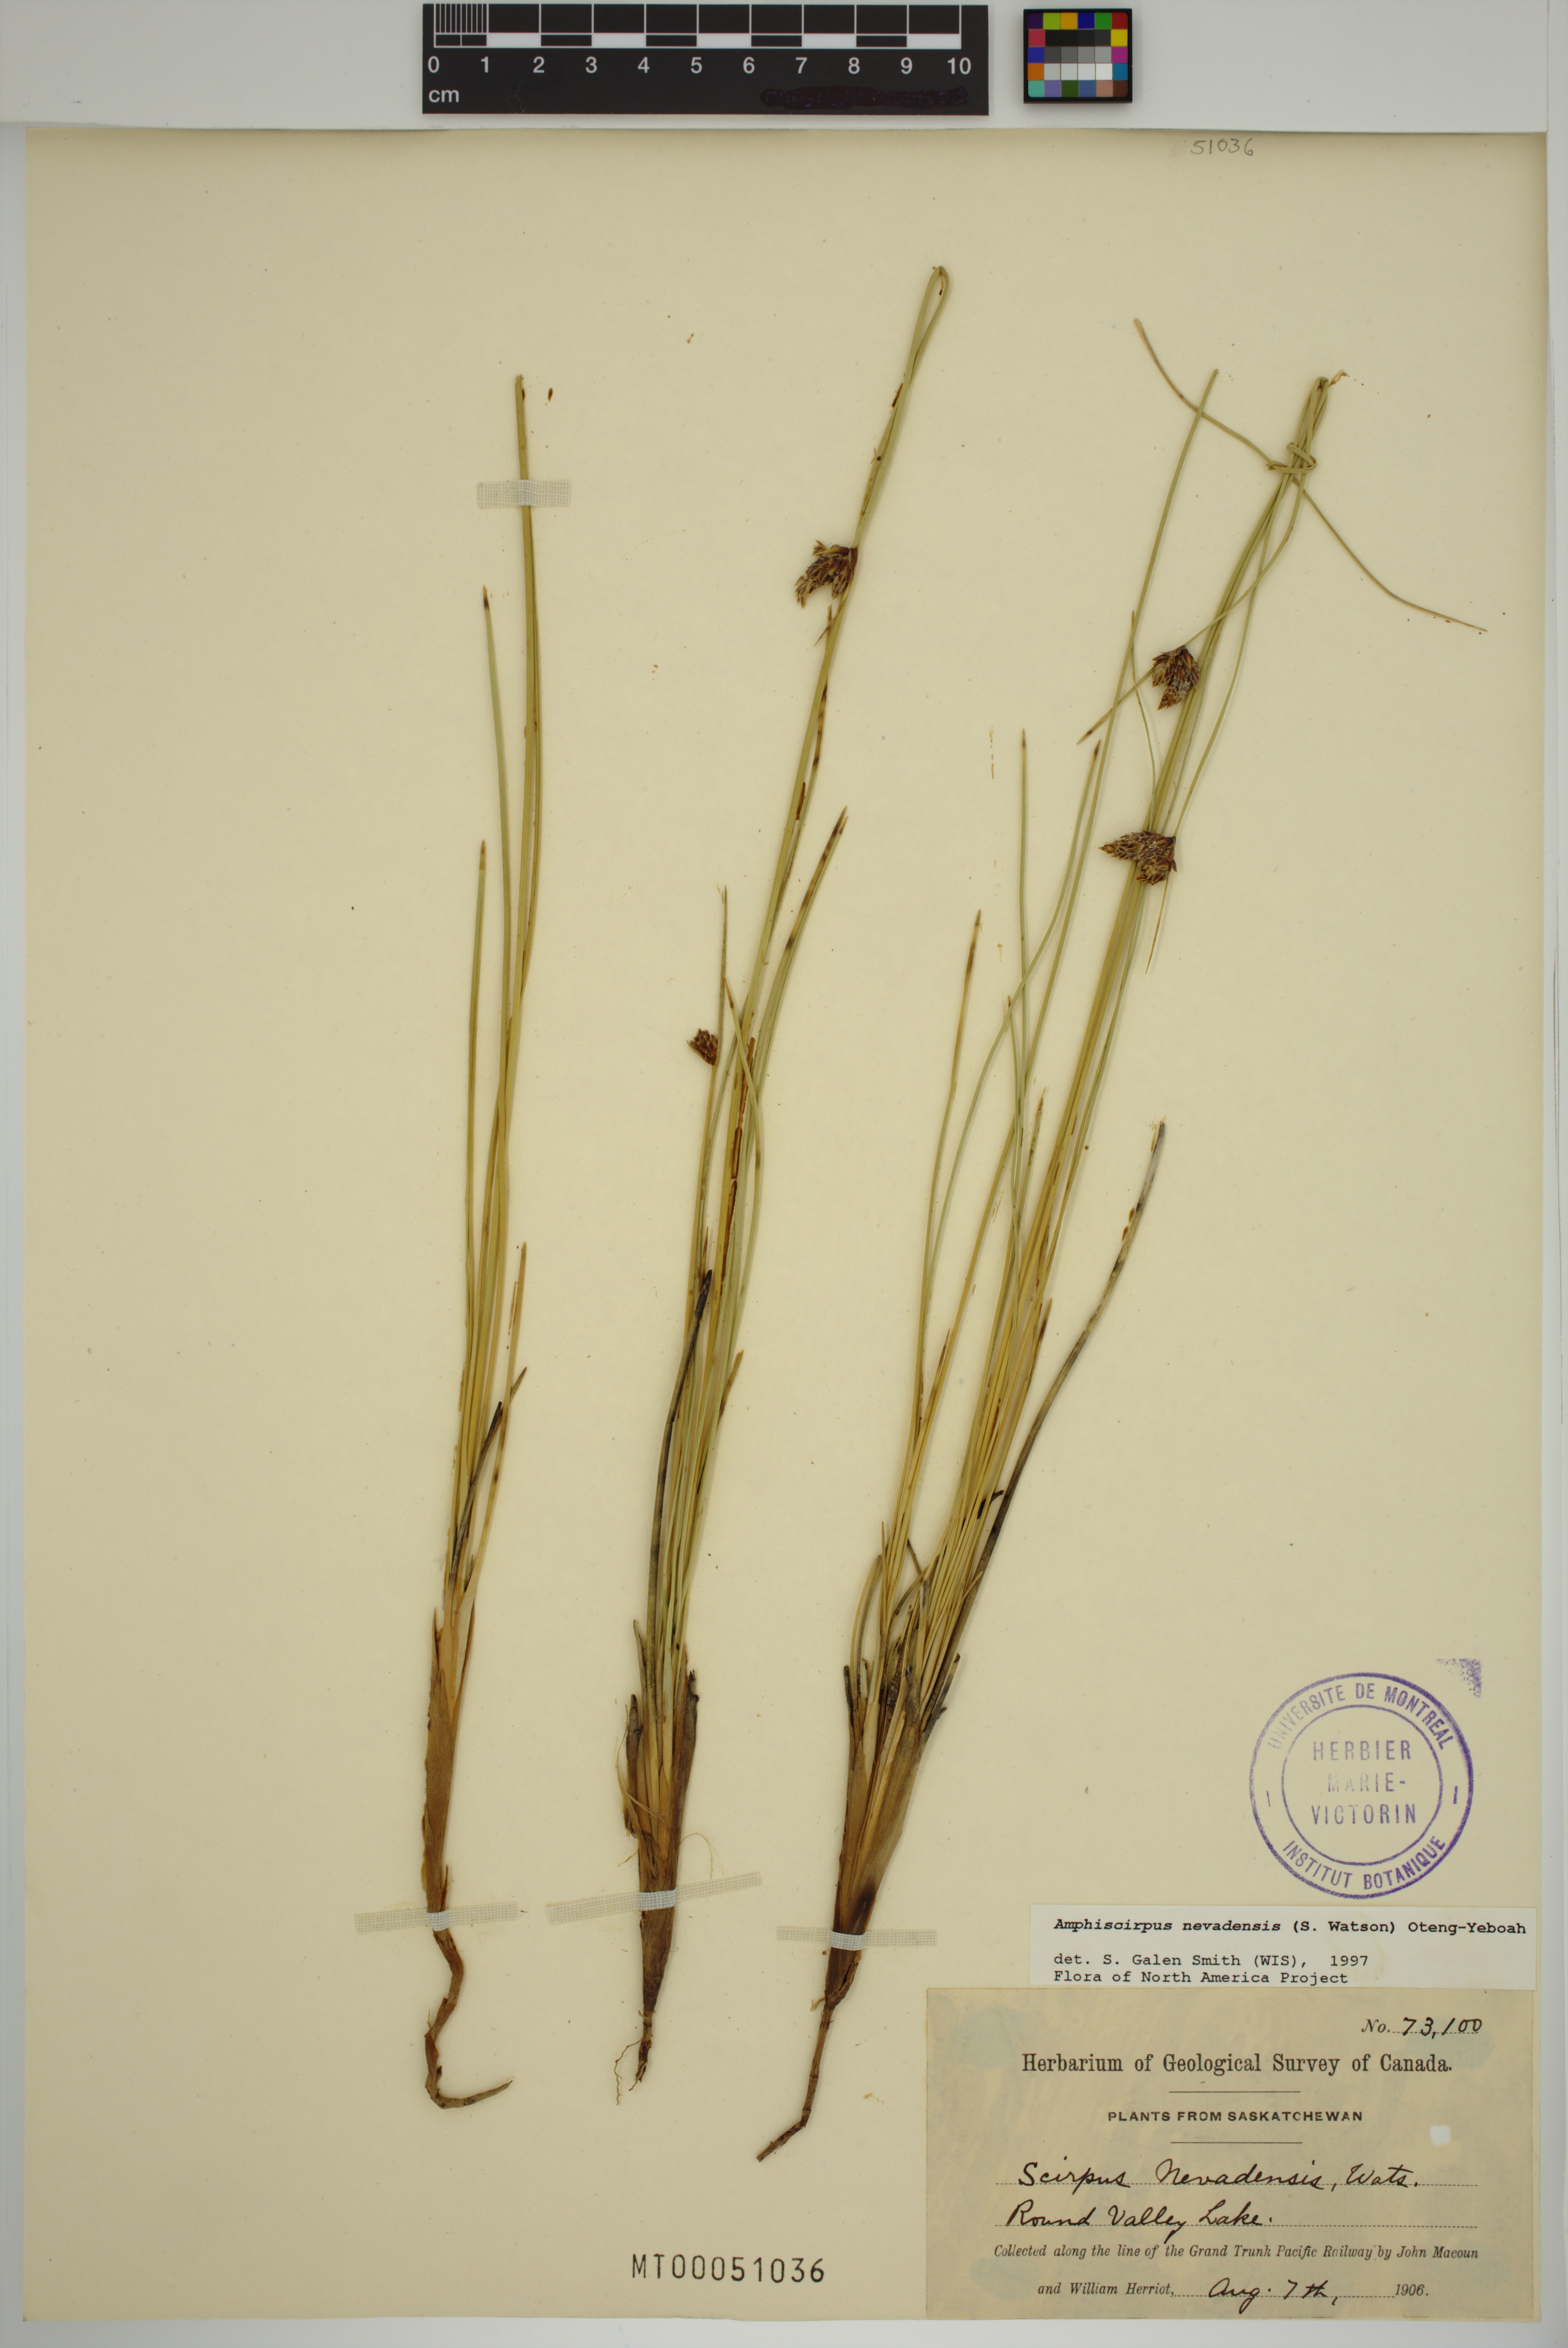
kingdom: Plantae
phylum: Tracheophyta
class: Liliopsida
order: Poales
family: Cyperaceae
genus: Amphiscirpus
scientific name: Amphiscirpus nevadensis
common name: Nevada bulrush
